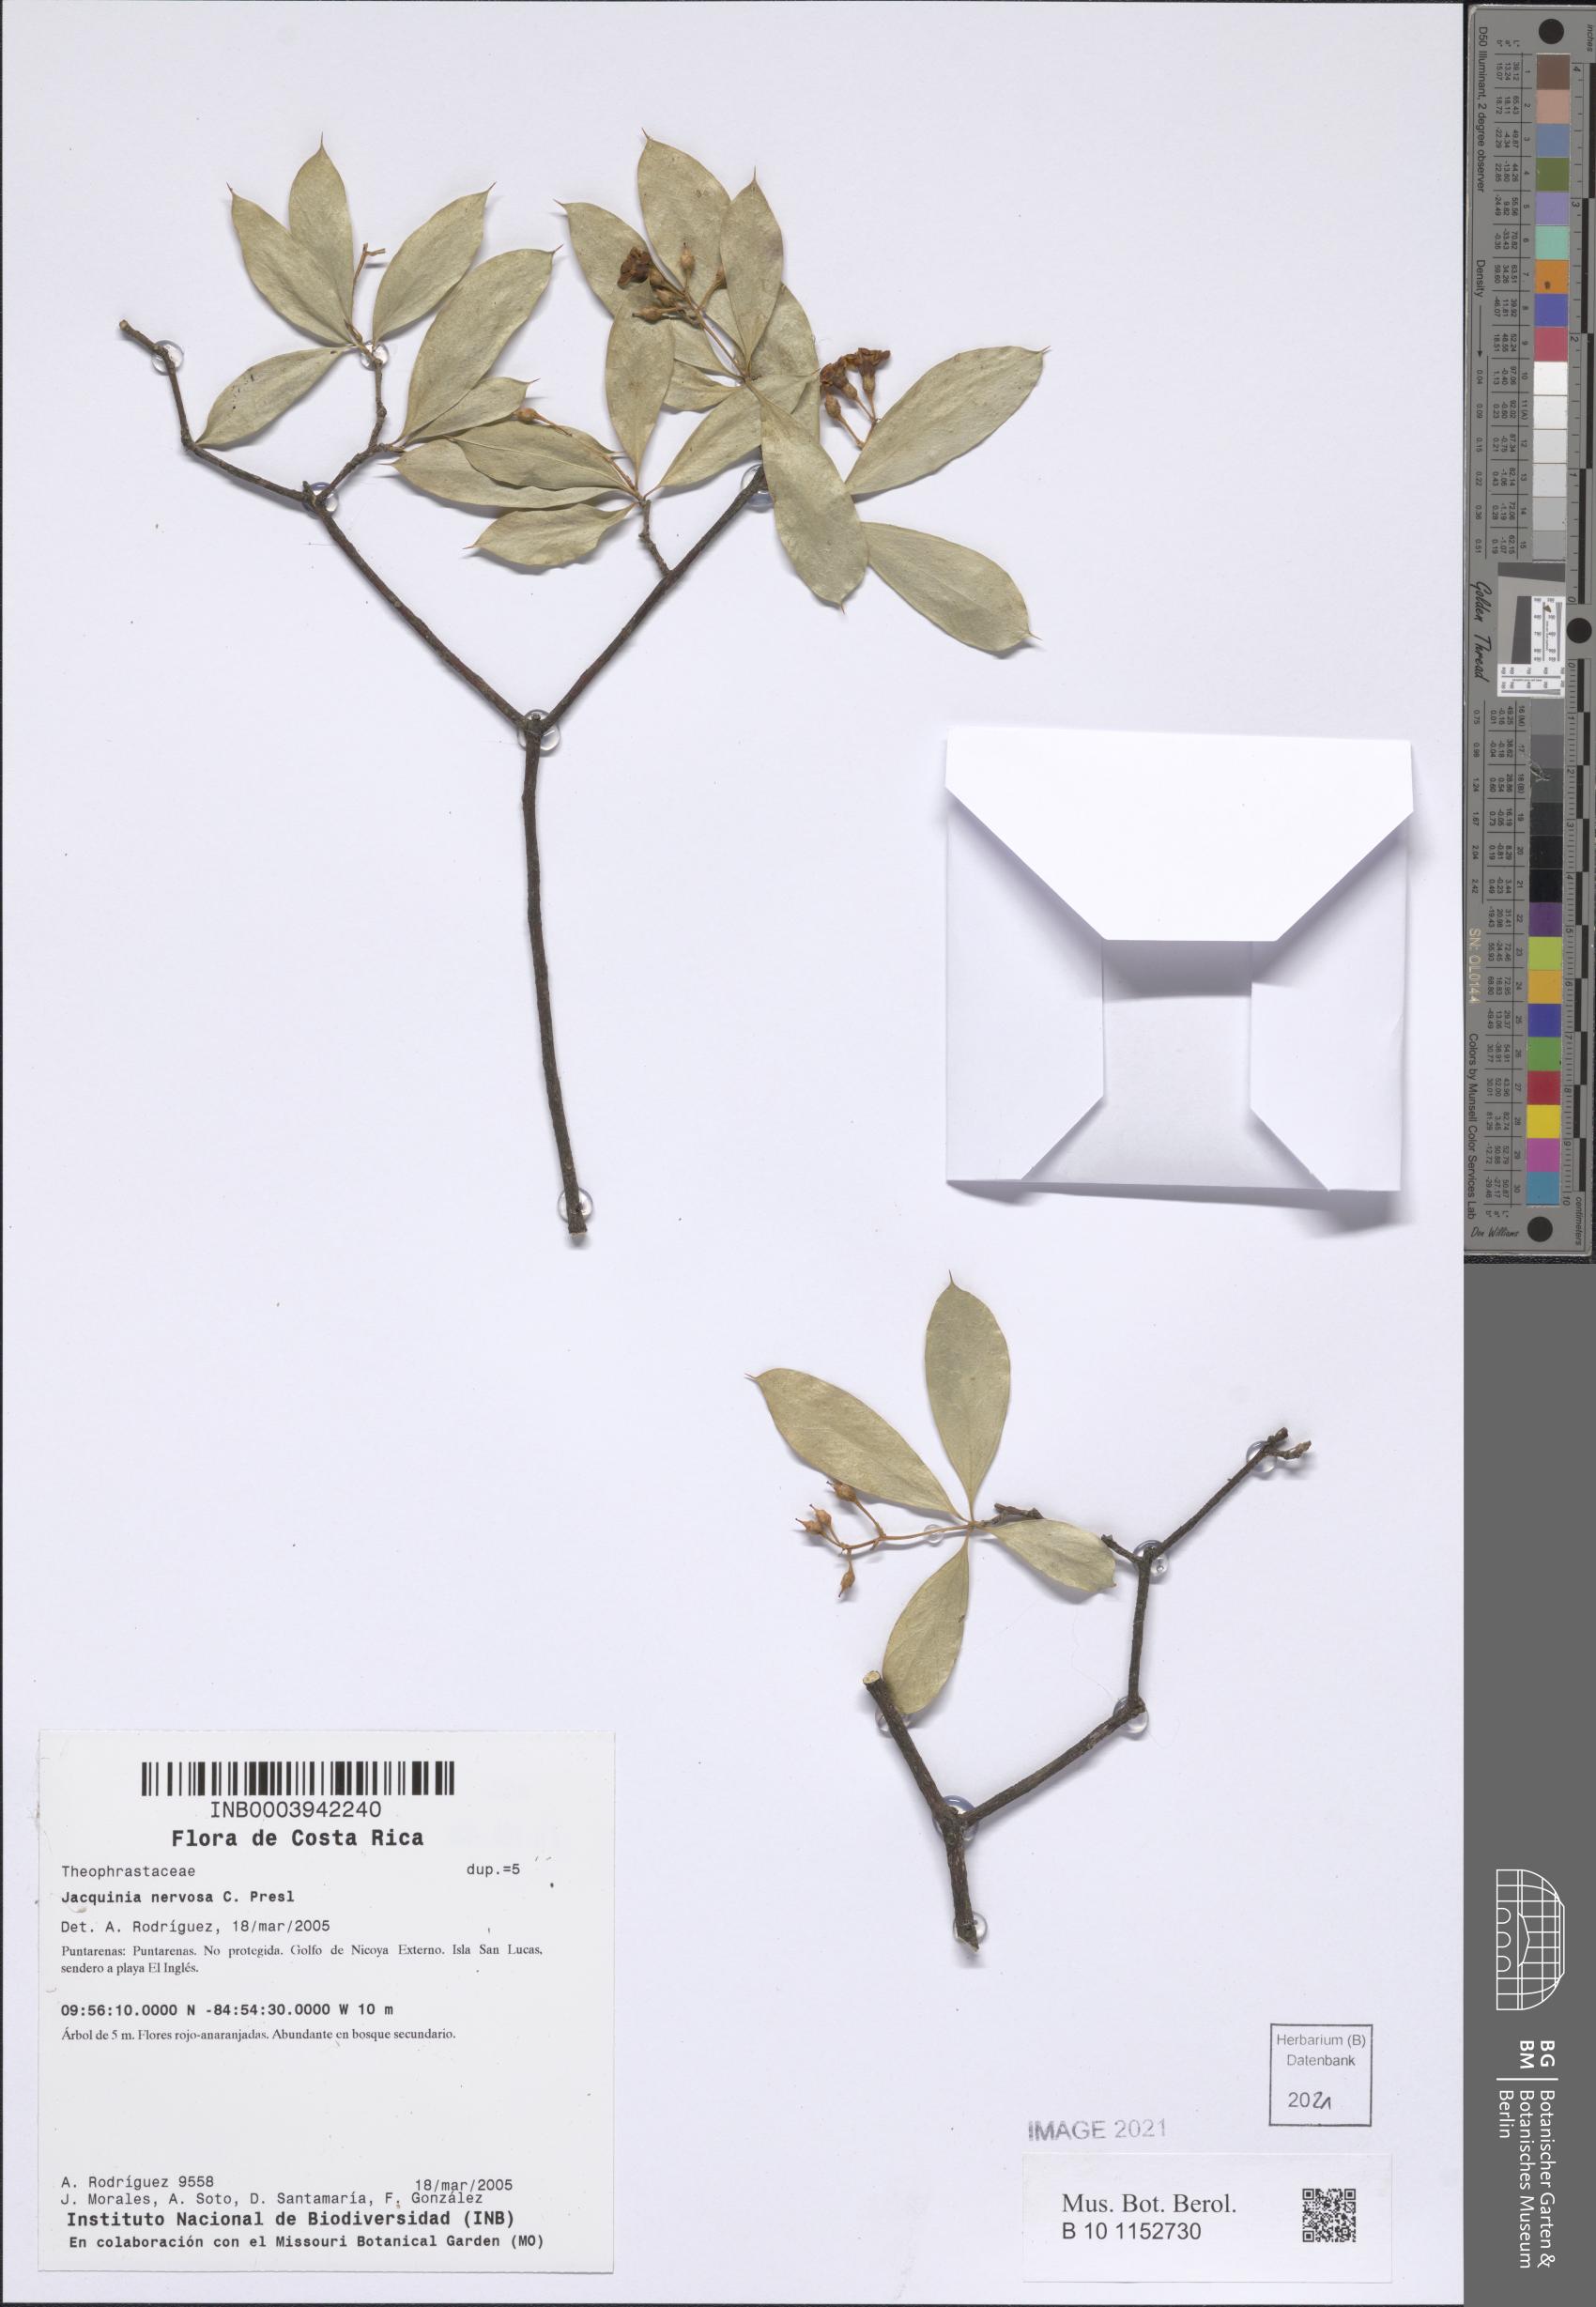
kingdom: Plantae
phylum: Tracheophyta
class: Magnoliopsida
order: Ericales
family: Primulaceae
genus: Bonellia
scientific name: Bonellia nervosa
